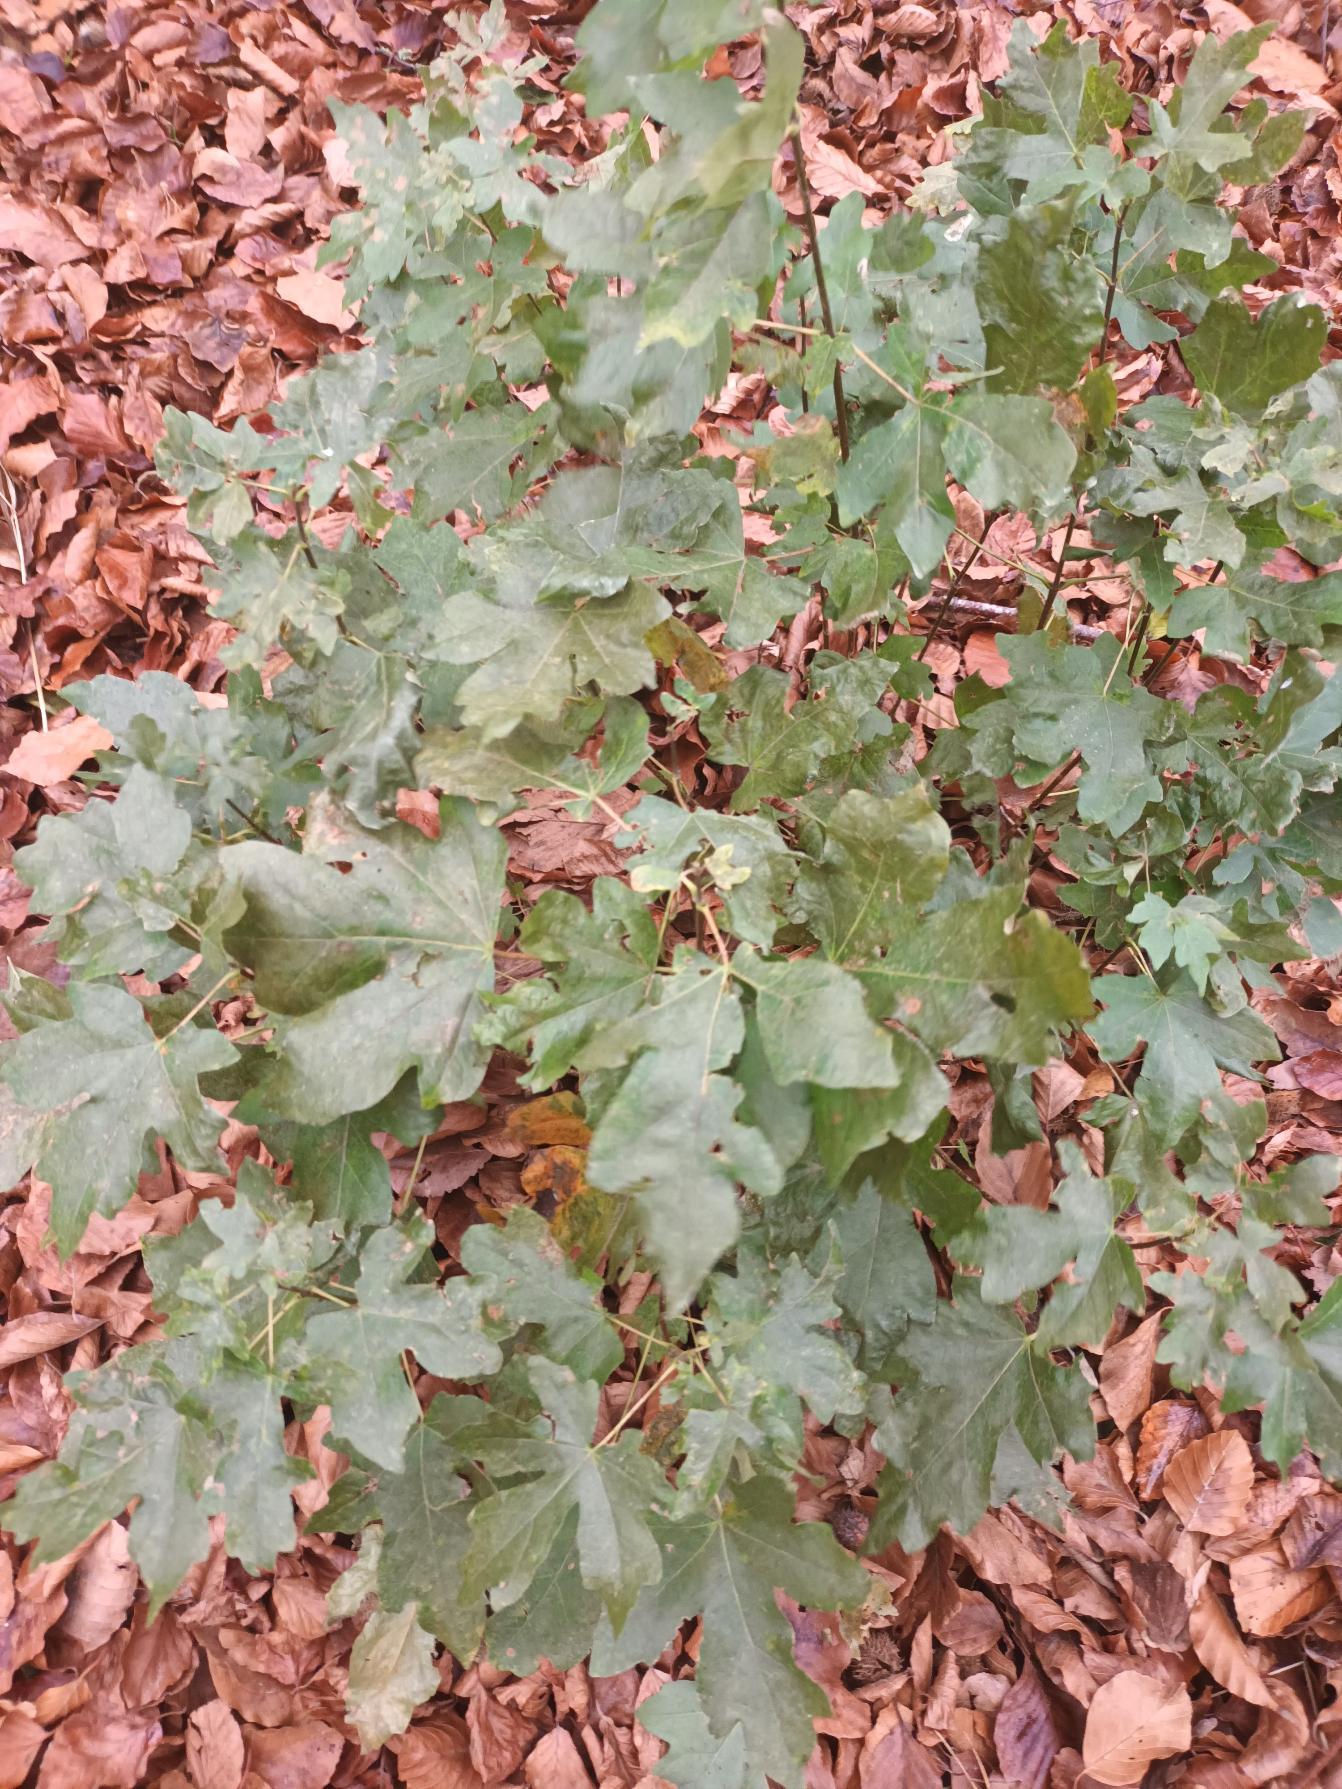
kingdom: Plantae
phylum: Tracheophyta
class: Magnoliopsida
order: Sapindales
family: Sapindaceae
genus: Acer
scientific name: Acer campestre
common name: Navr
